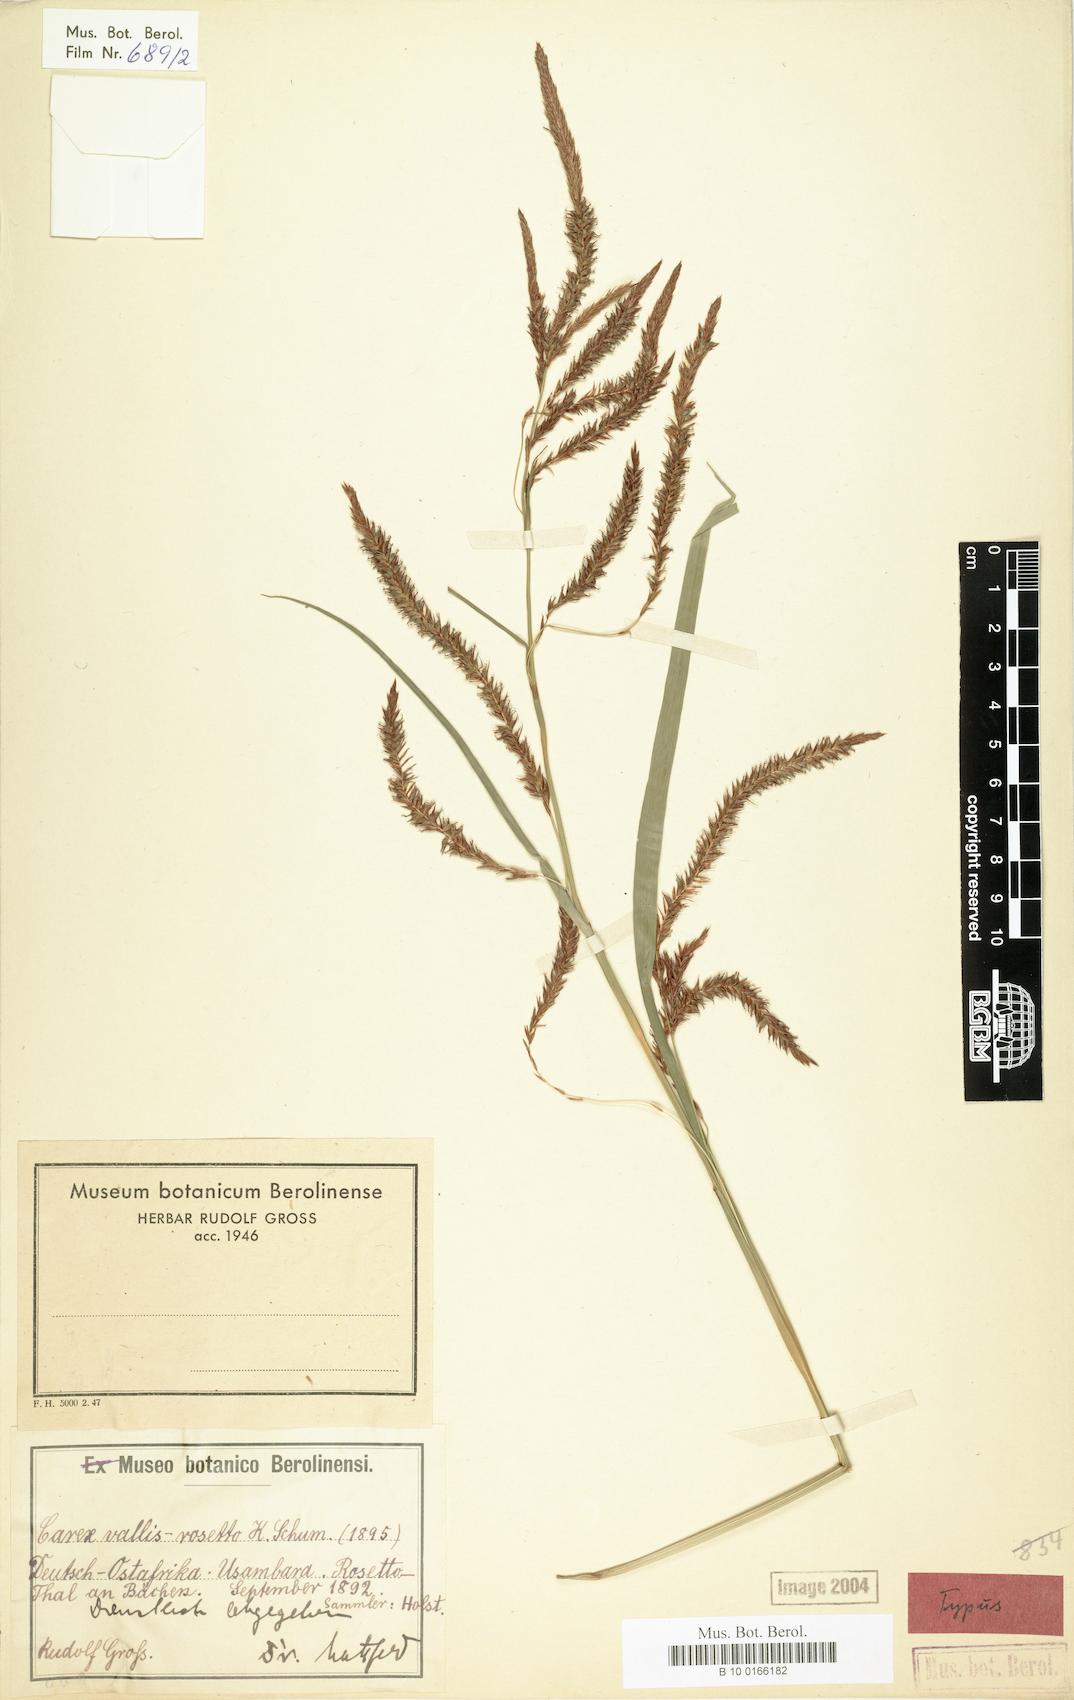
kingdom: Plantae
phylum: Tracheophyta
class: Liliopsida
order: Poales
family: Cyperaceae
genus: Carex
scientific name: Carex vallis-rosetta
